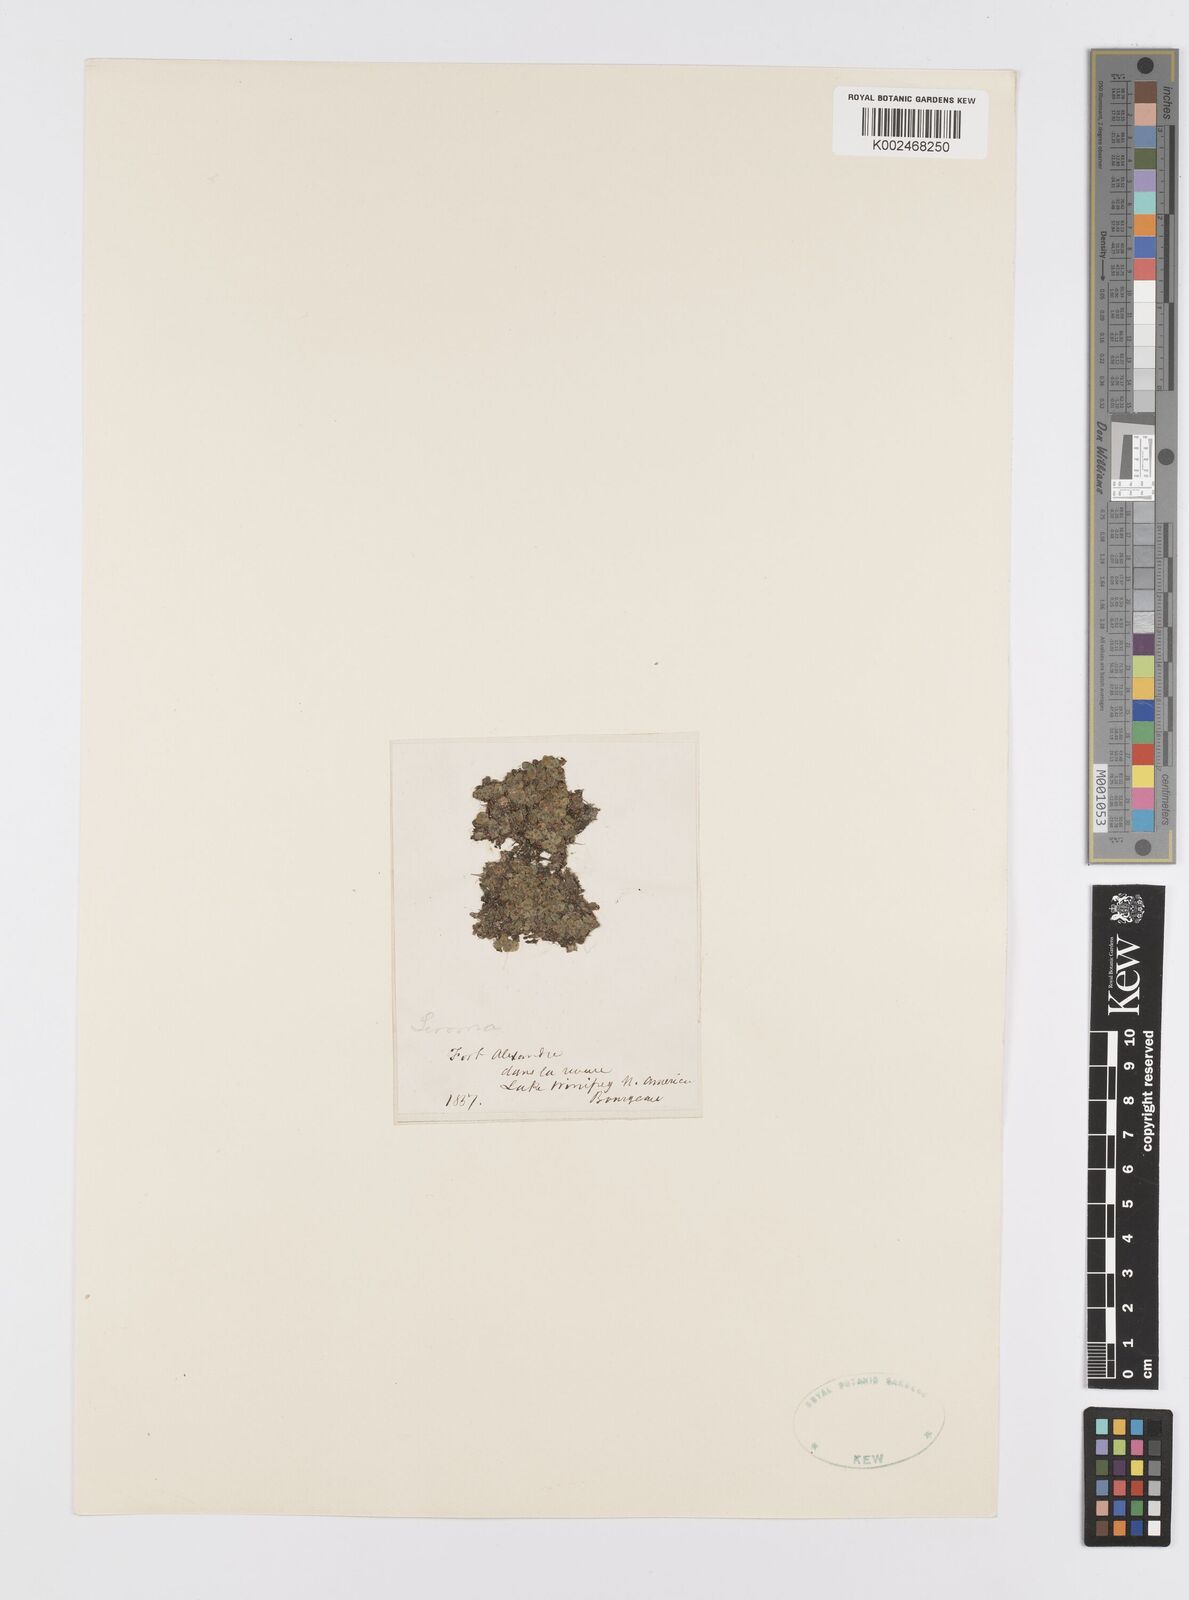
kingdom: Plantae
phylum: Tracheophyta
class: Liliopsida
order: Alismatales
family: Araceae
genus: Lemna
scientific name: Lemna
